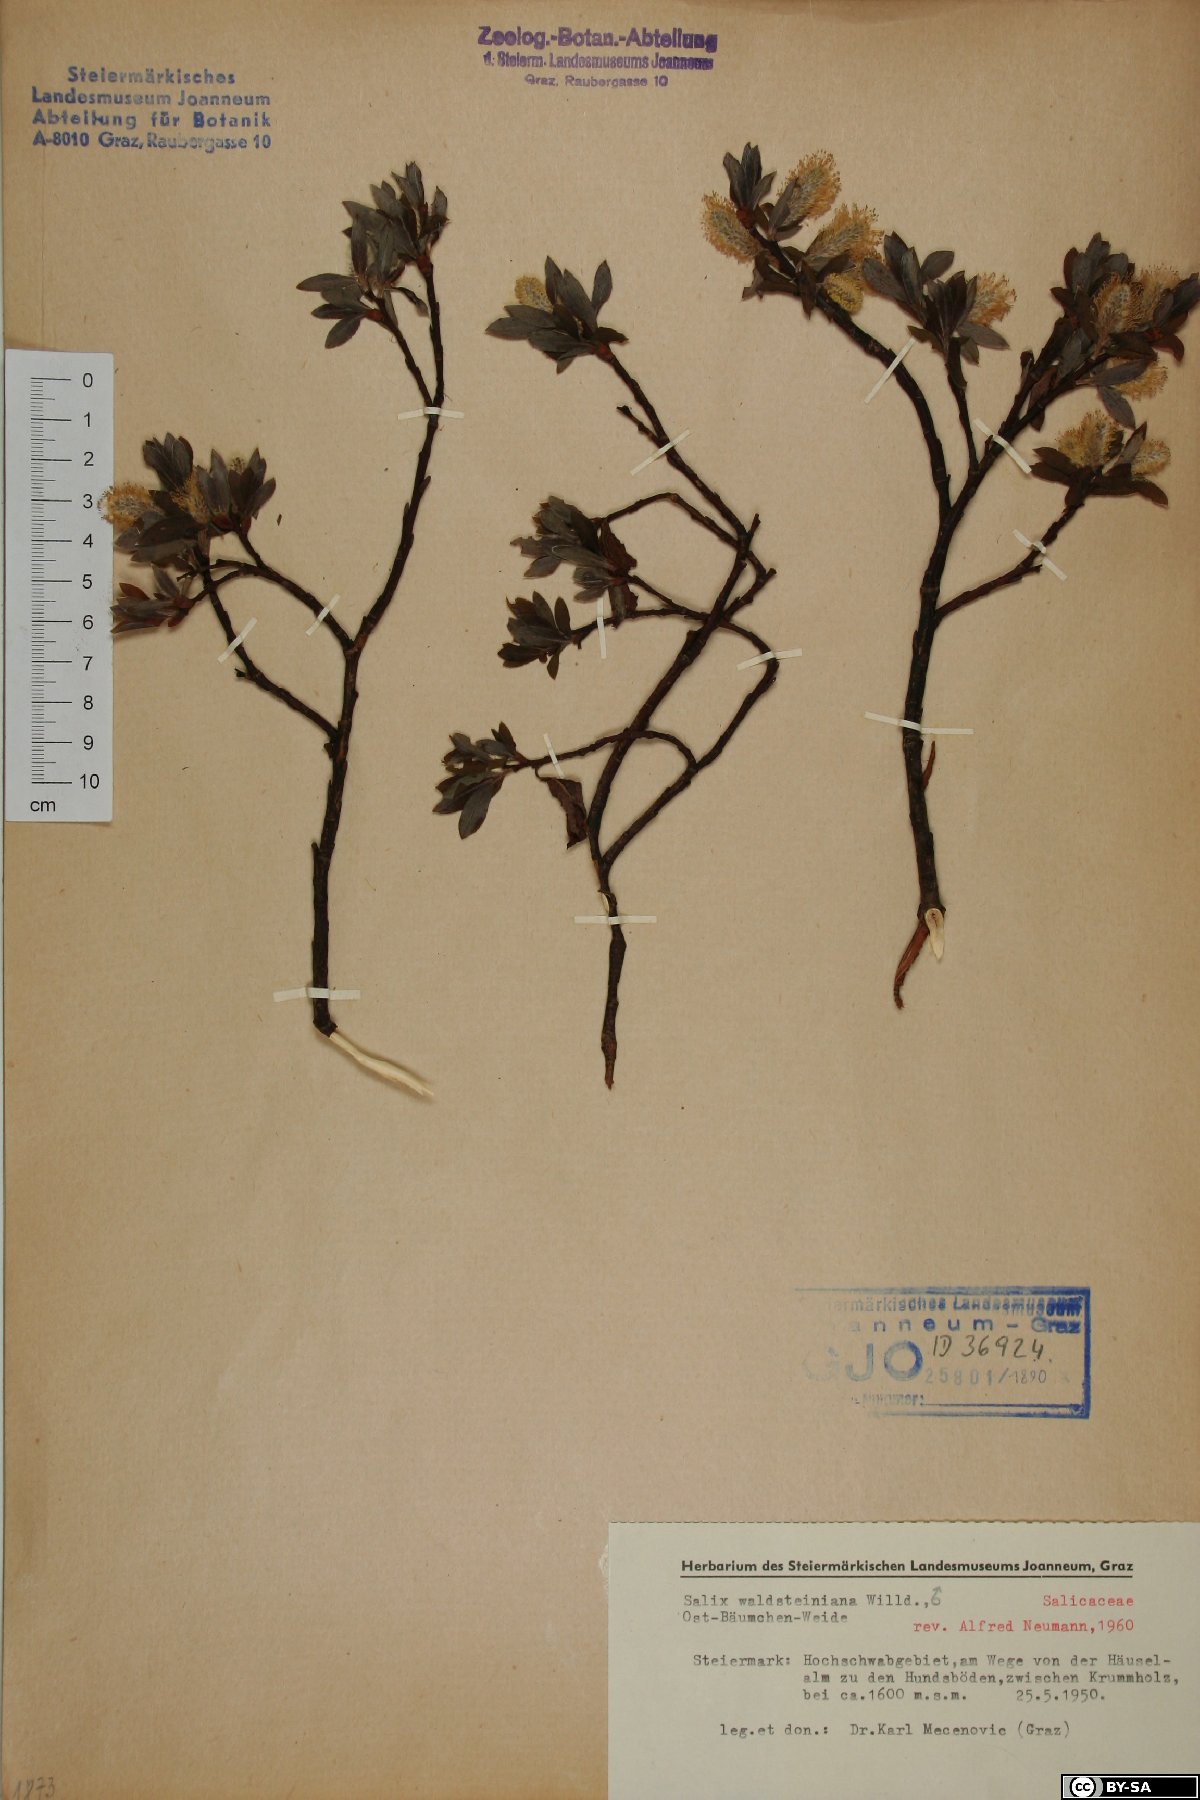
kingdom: Plantae
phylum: Tracheophyta
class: Magnoliopsida
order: Malpighiales
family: Salicaceae
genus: Salix
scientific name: Salix waldsteiniana
